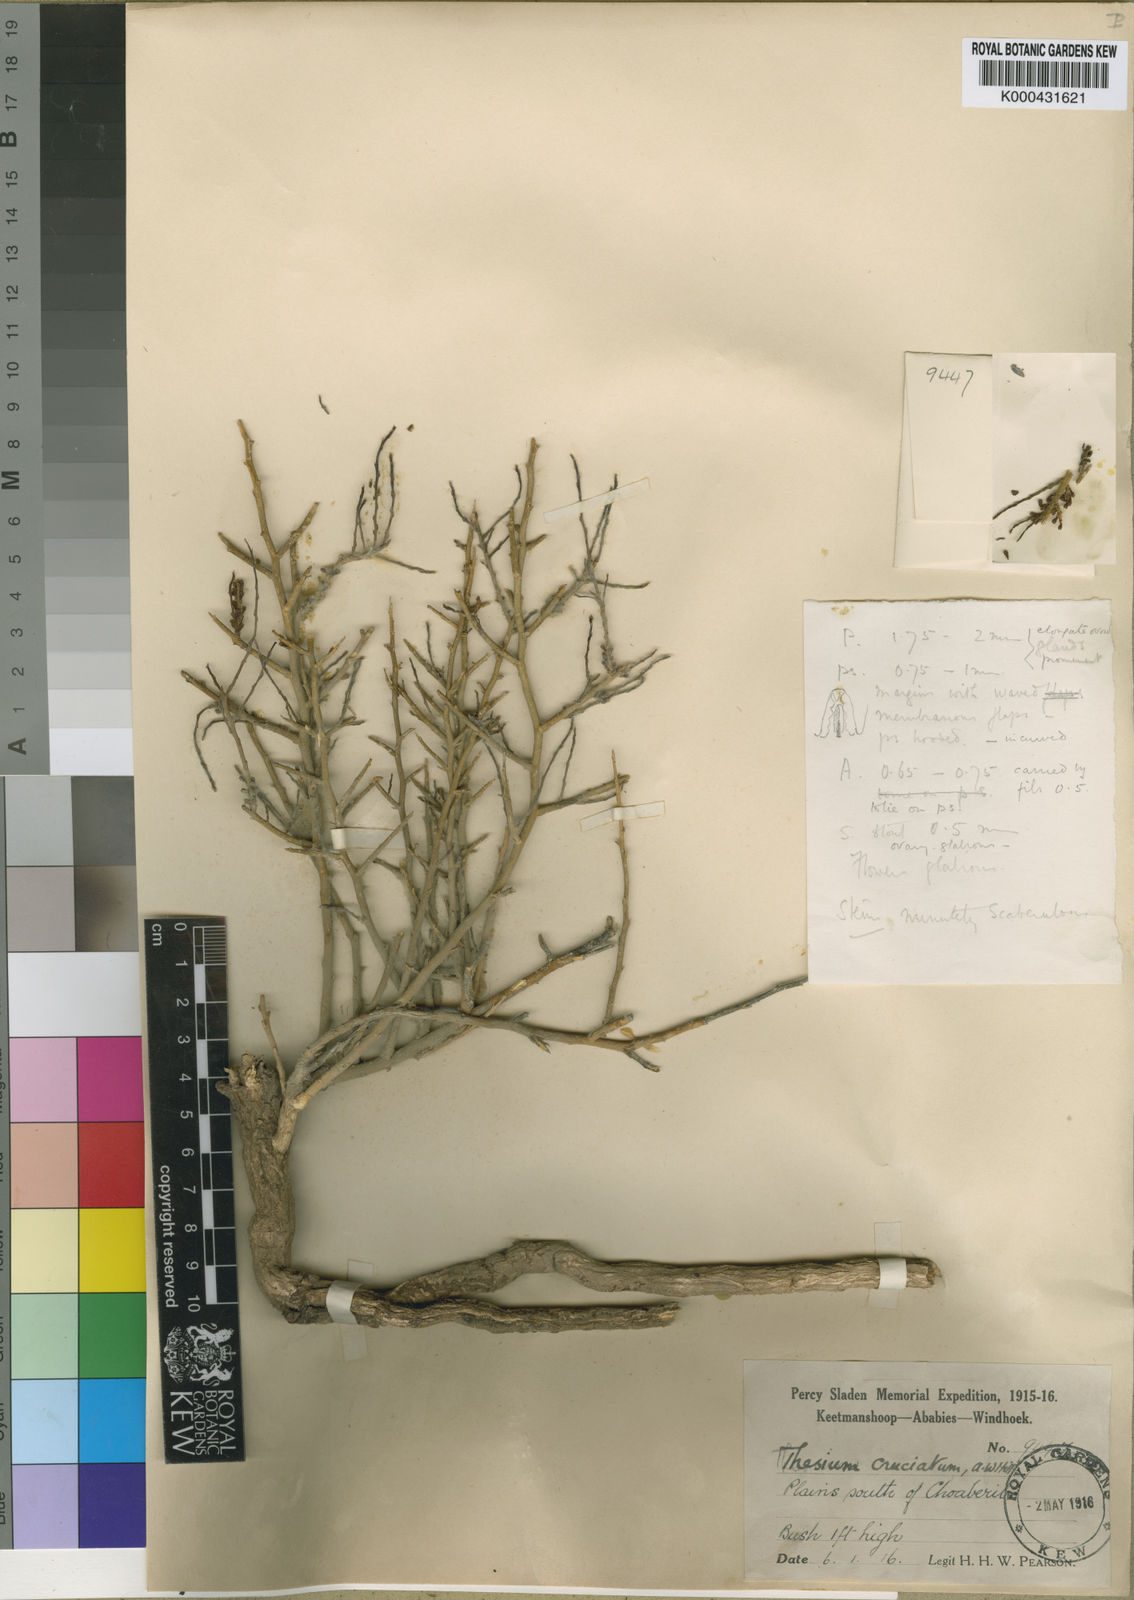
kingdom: Plantae
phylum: Tracheophyta
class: Magnoliopsida
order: Santalales
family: Thesiaceae
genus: Thesium
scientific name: Thesium lacinulatum
